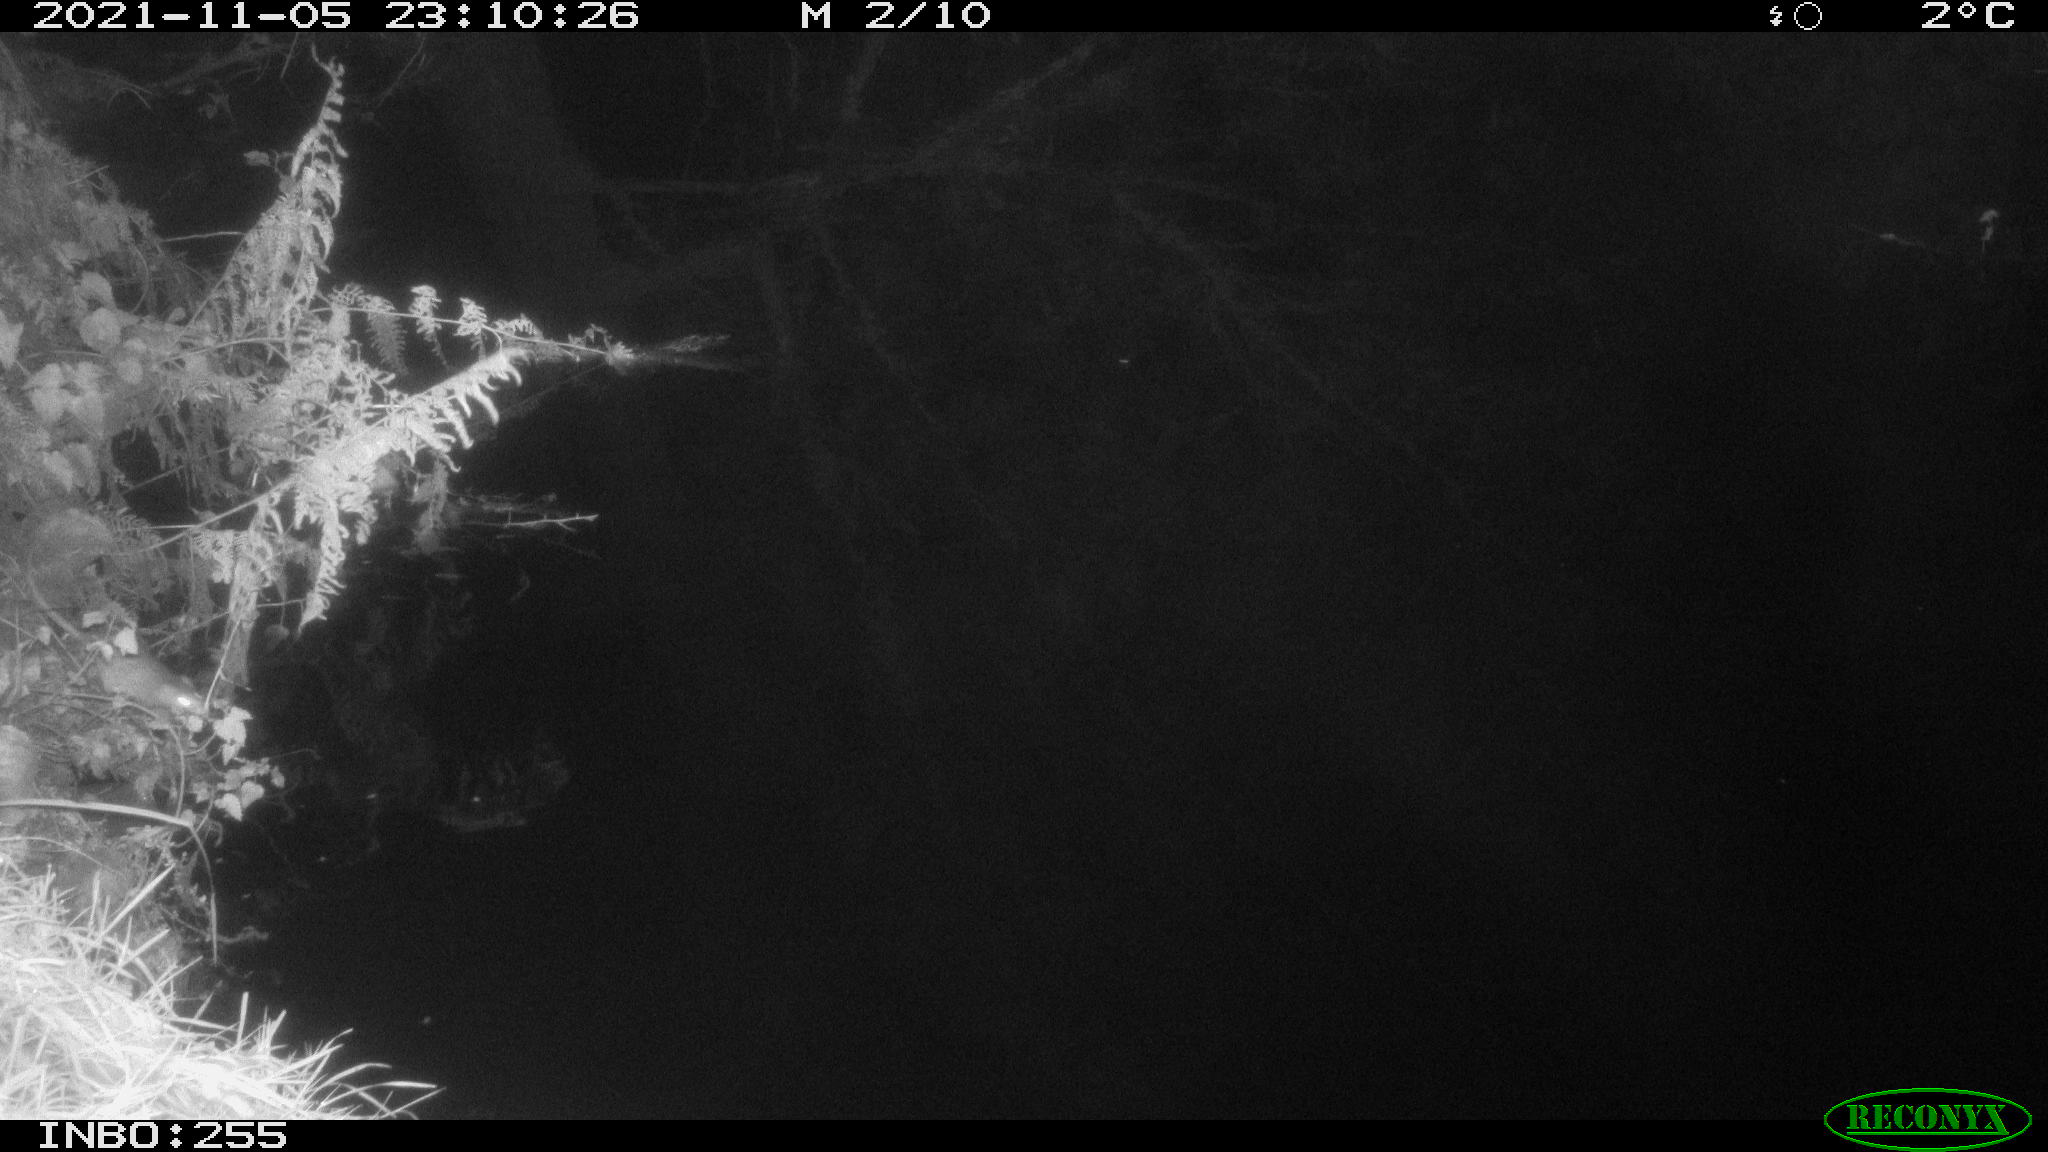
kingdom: Animalia
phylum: Chordata
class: Mammalia
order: Rodentia
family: Muridae
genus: Rattus
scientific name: Rattus norvegicus
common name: Brown rat
